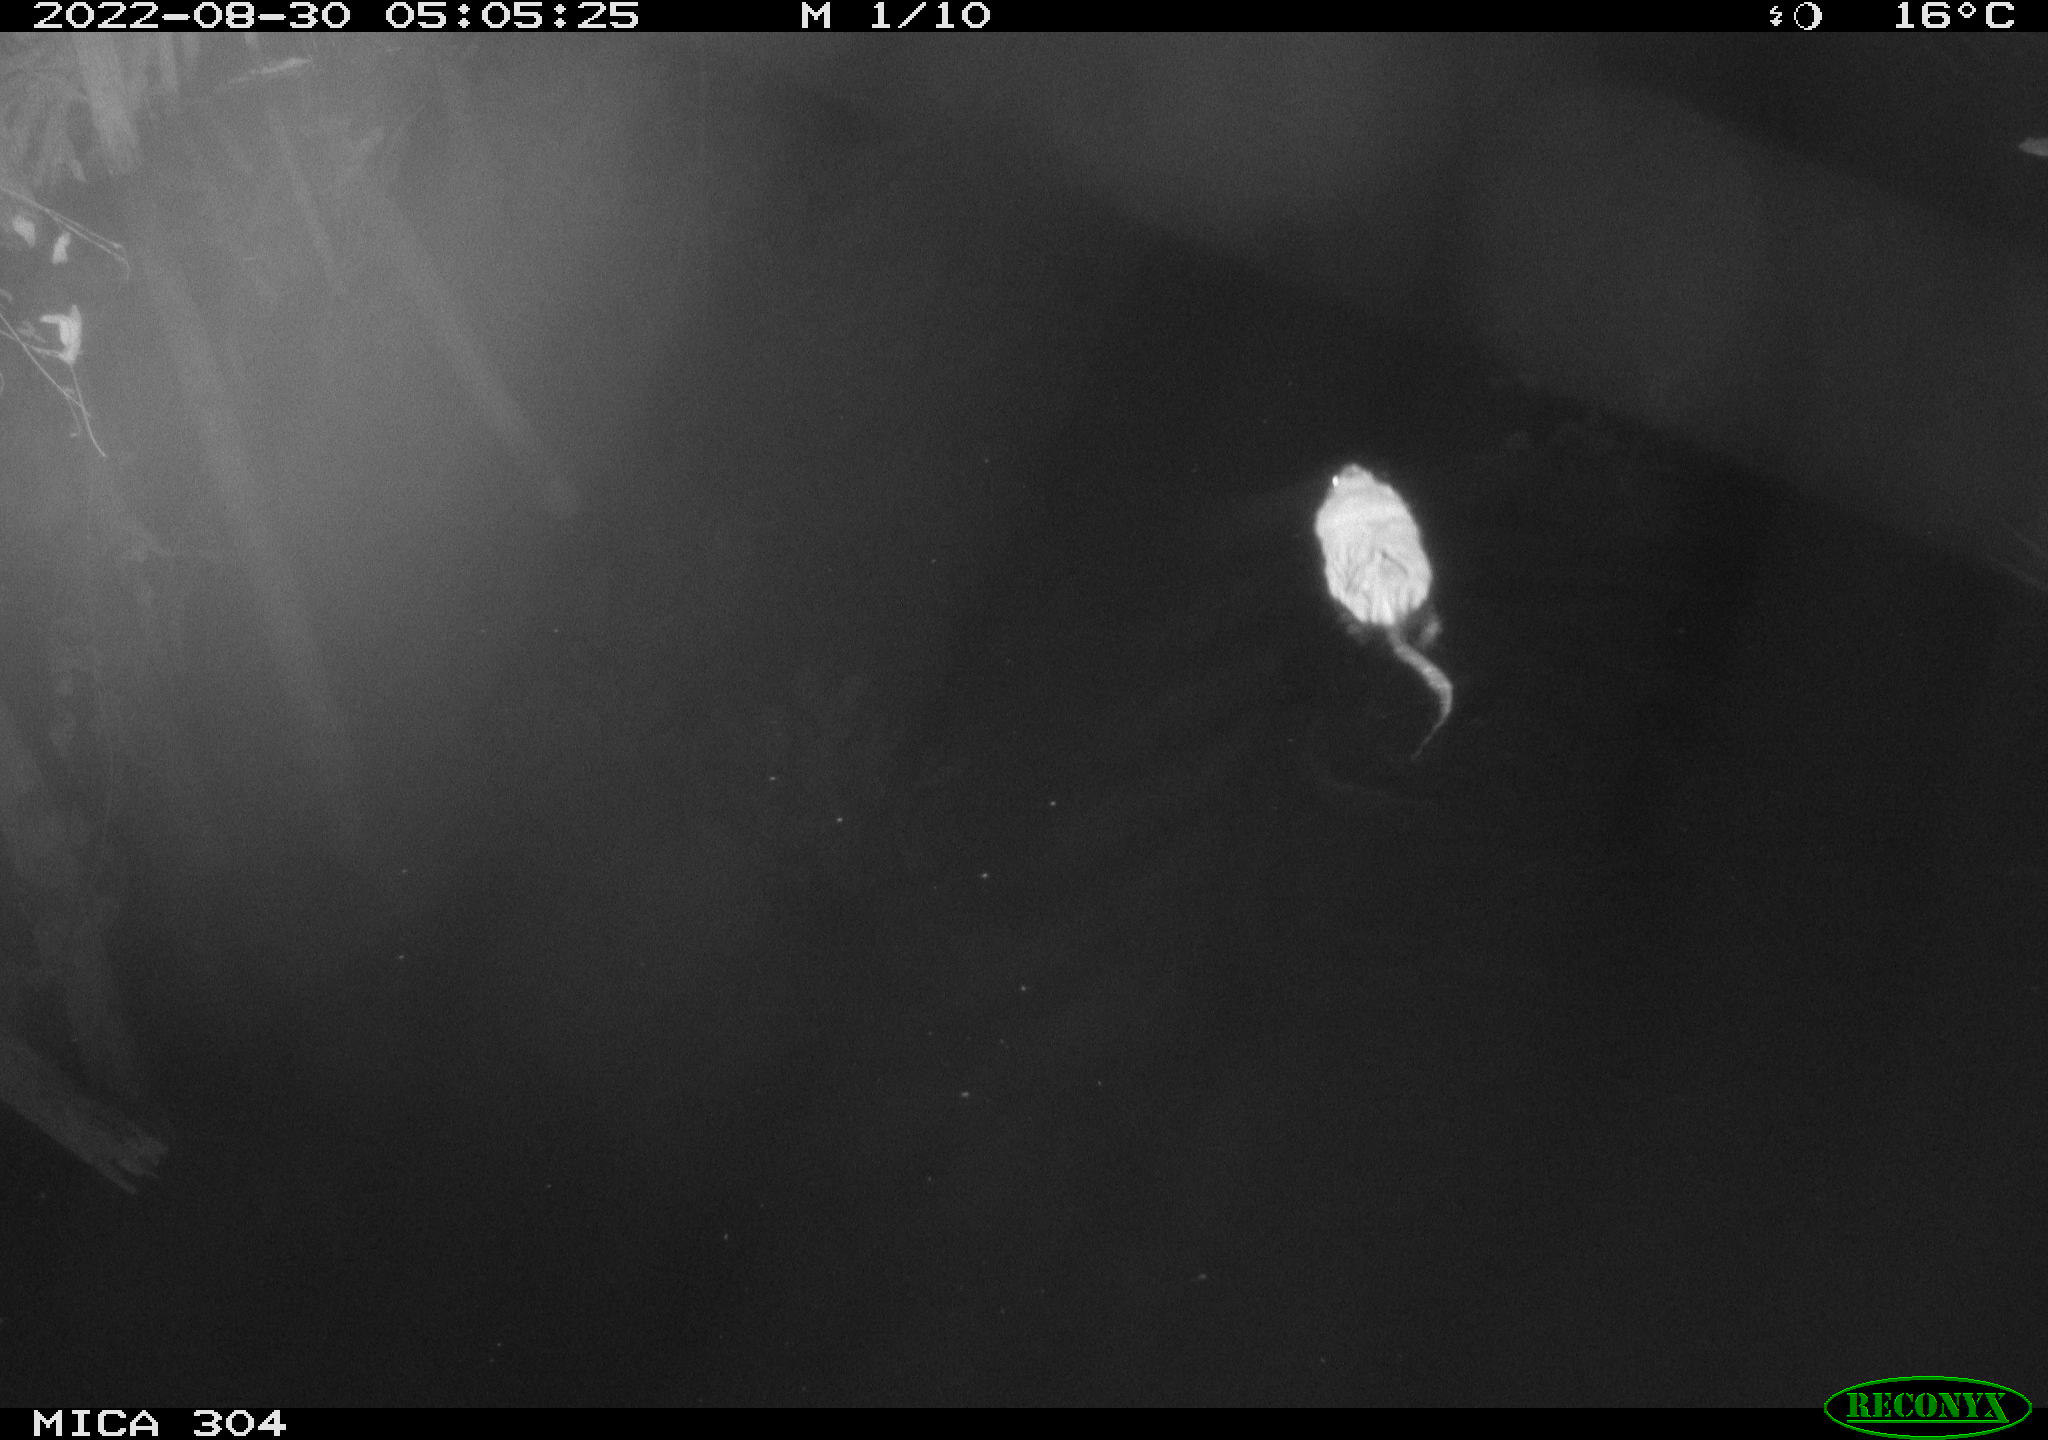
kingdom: Animalia
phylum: Chordata
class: Mammalia
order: Rodentia
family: Cricetidae
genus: Ondatra
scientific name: Ondatra zibethicus
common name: Muskrat
